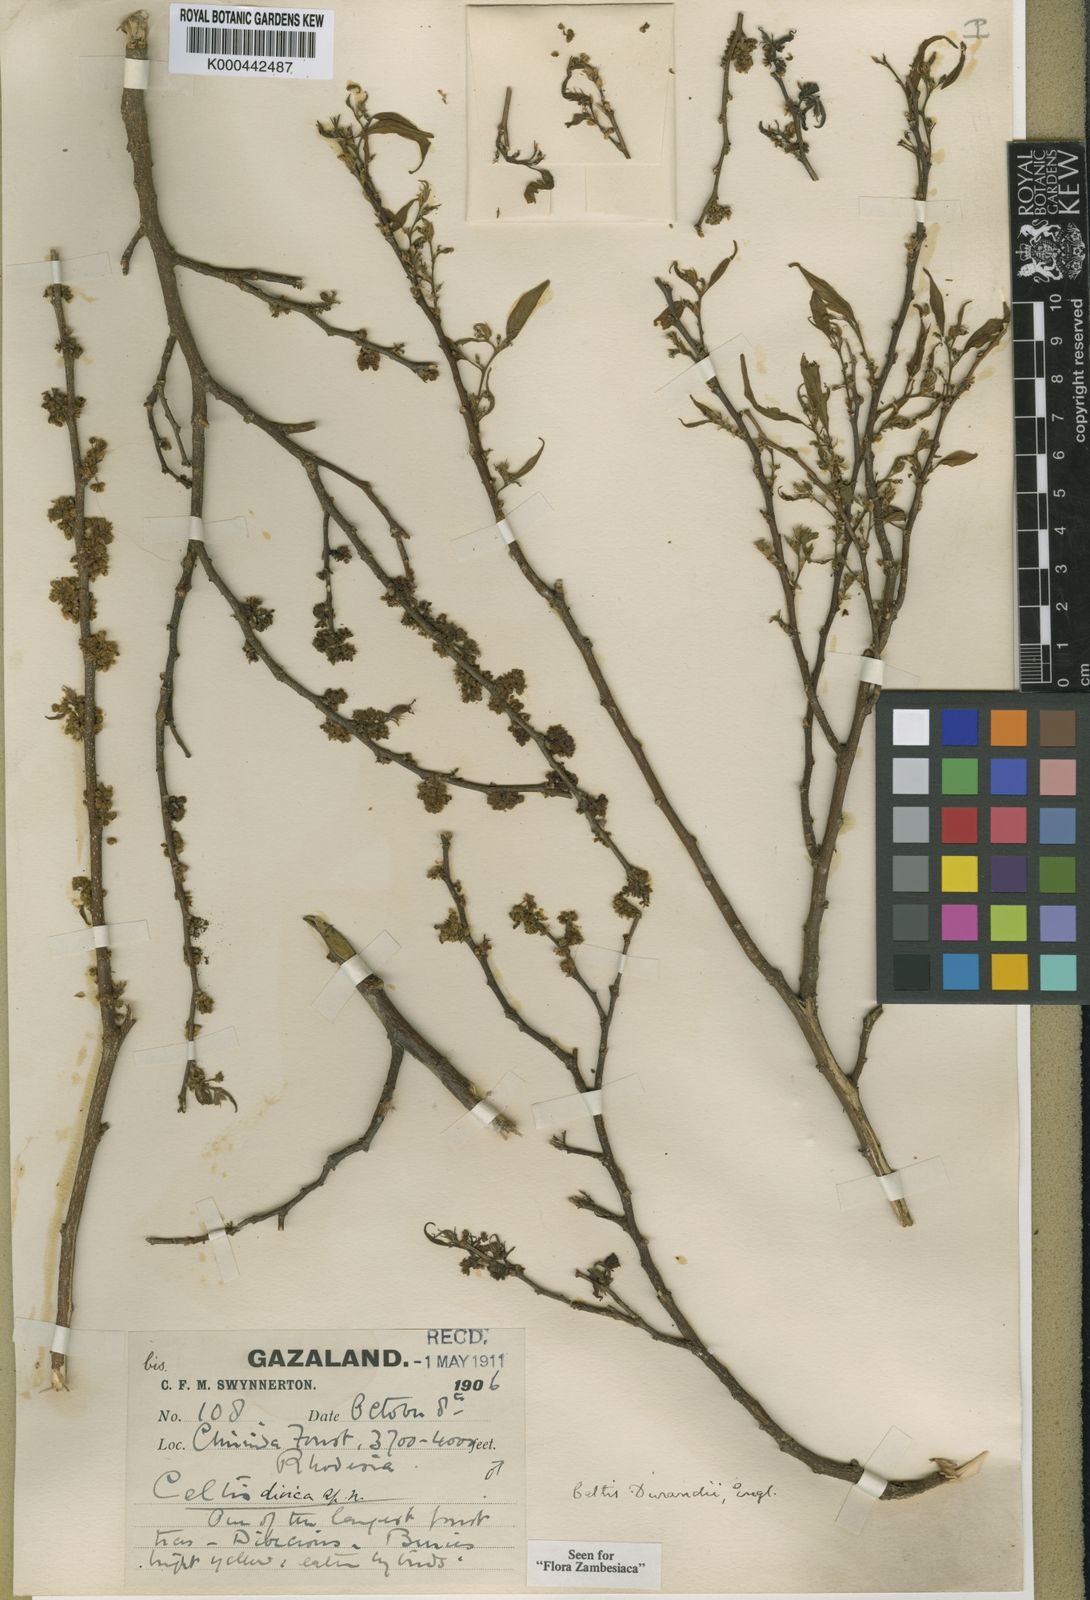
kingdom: Plantae
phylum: Tracheophyta
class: Magnoliopsida
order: Rosales
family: Cannabaceae
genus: Celtis
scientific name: Celtis gomphophylla
